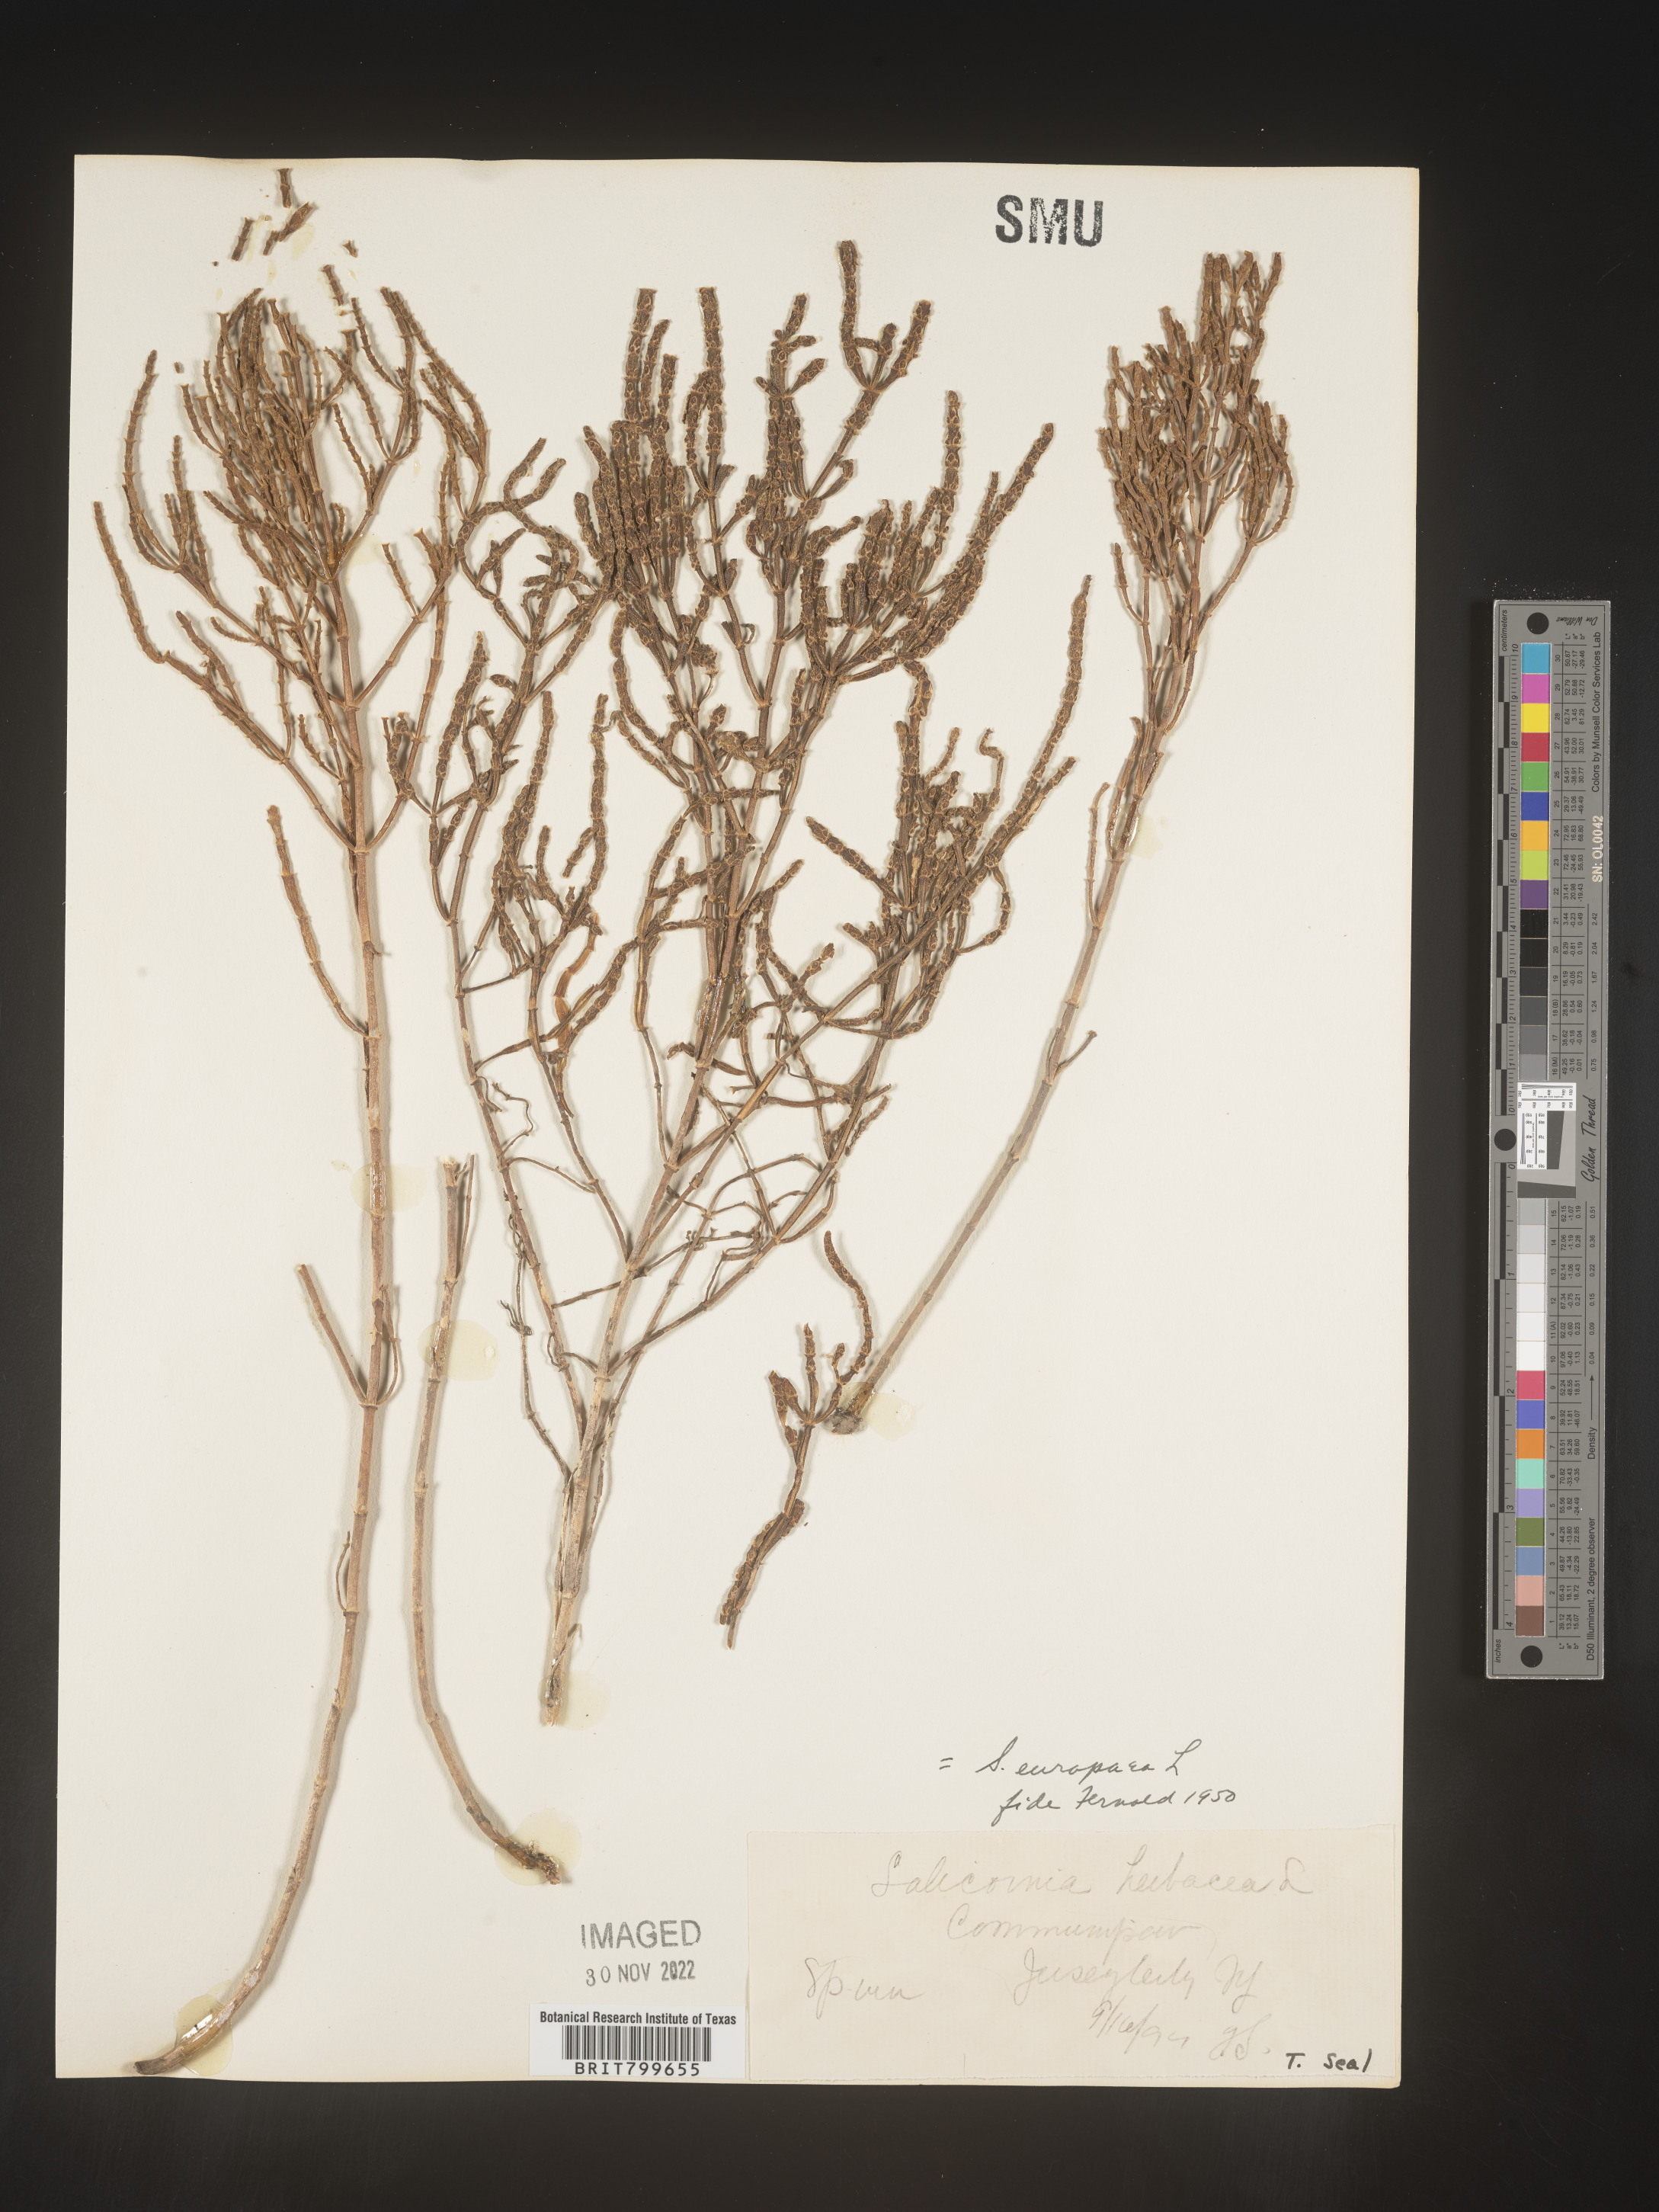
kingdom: Plantae
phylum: Tracheophyta
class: Magnoliopsida
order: Caryophyllales
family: Amaranthaceae
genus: Salicornia
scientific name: Salicornia europaea
